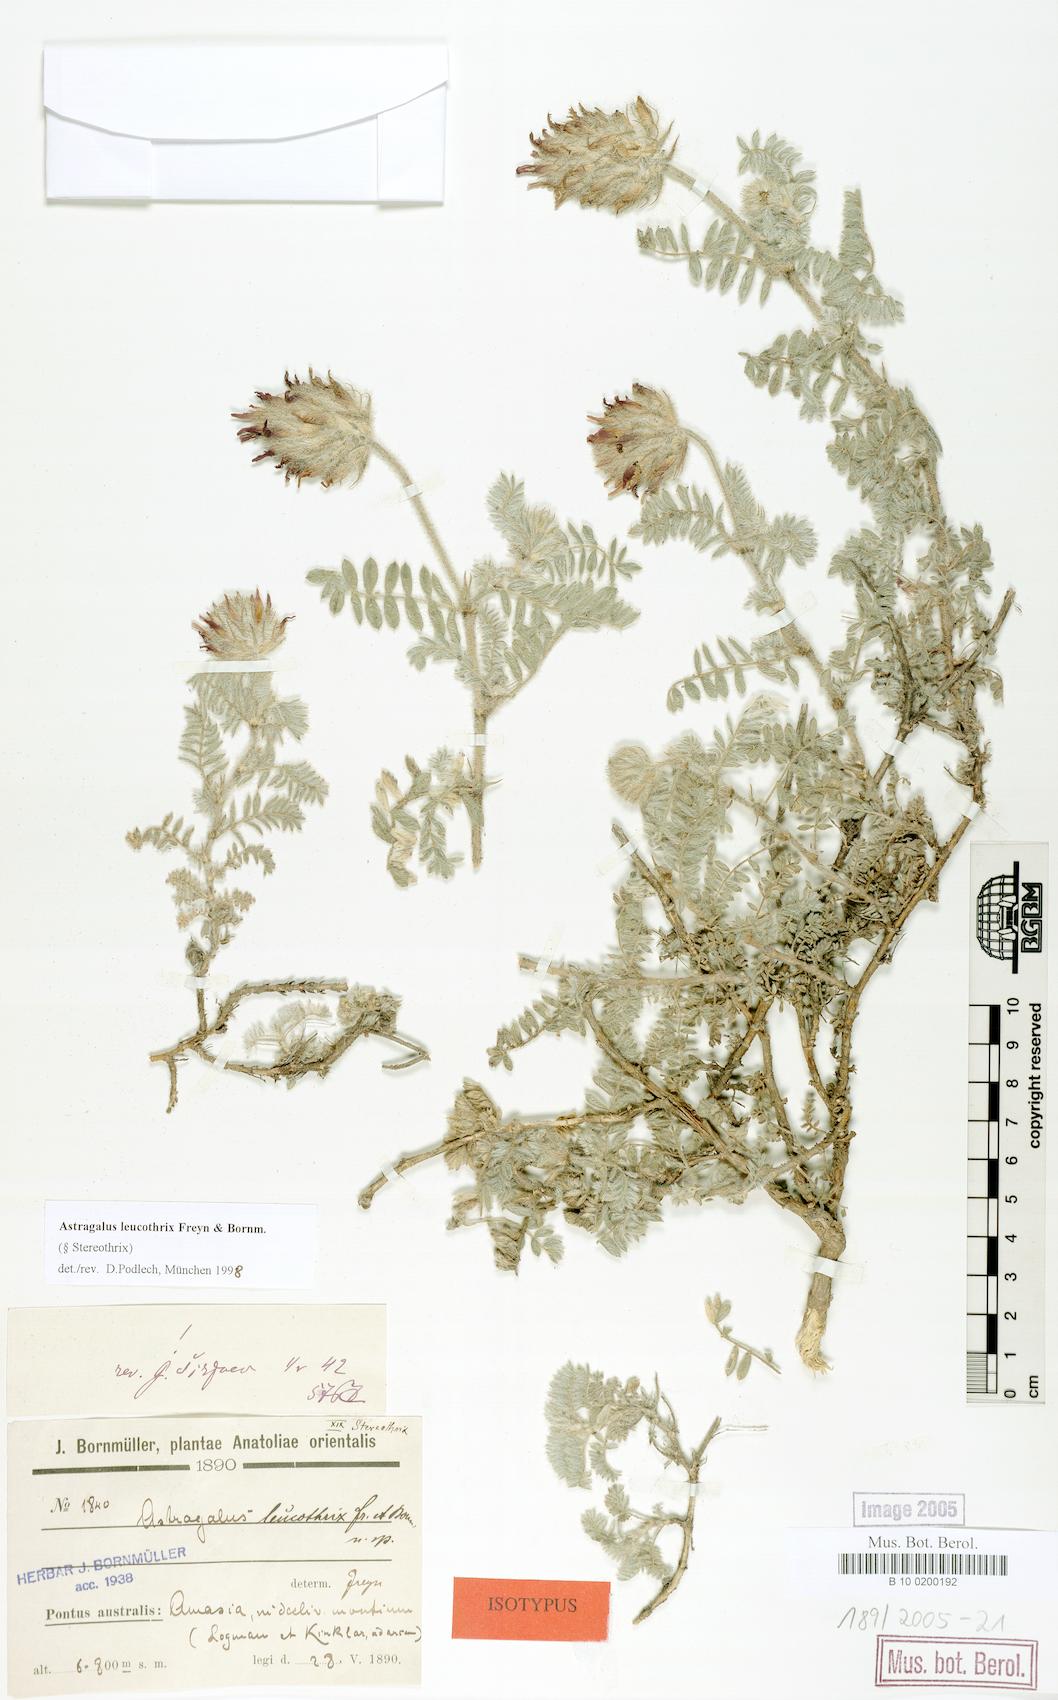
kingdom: Plantae
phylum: Tracheophyta
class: Magnoliopsida
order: Fabales
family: Fabaceae
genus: Astragalus
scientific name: Astragalus leucothrix
